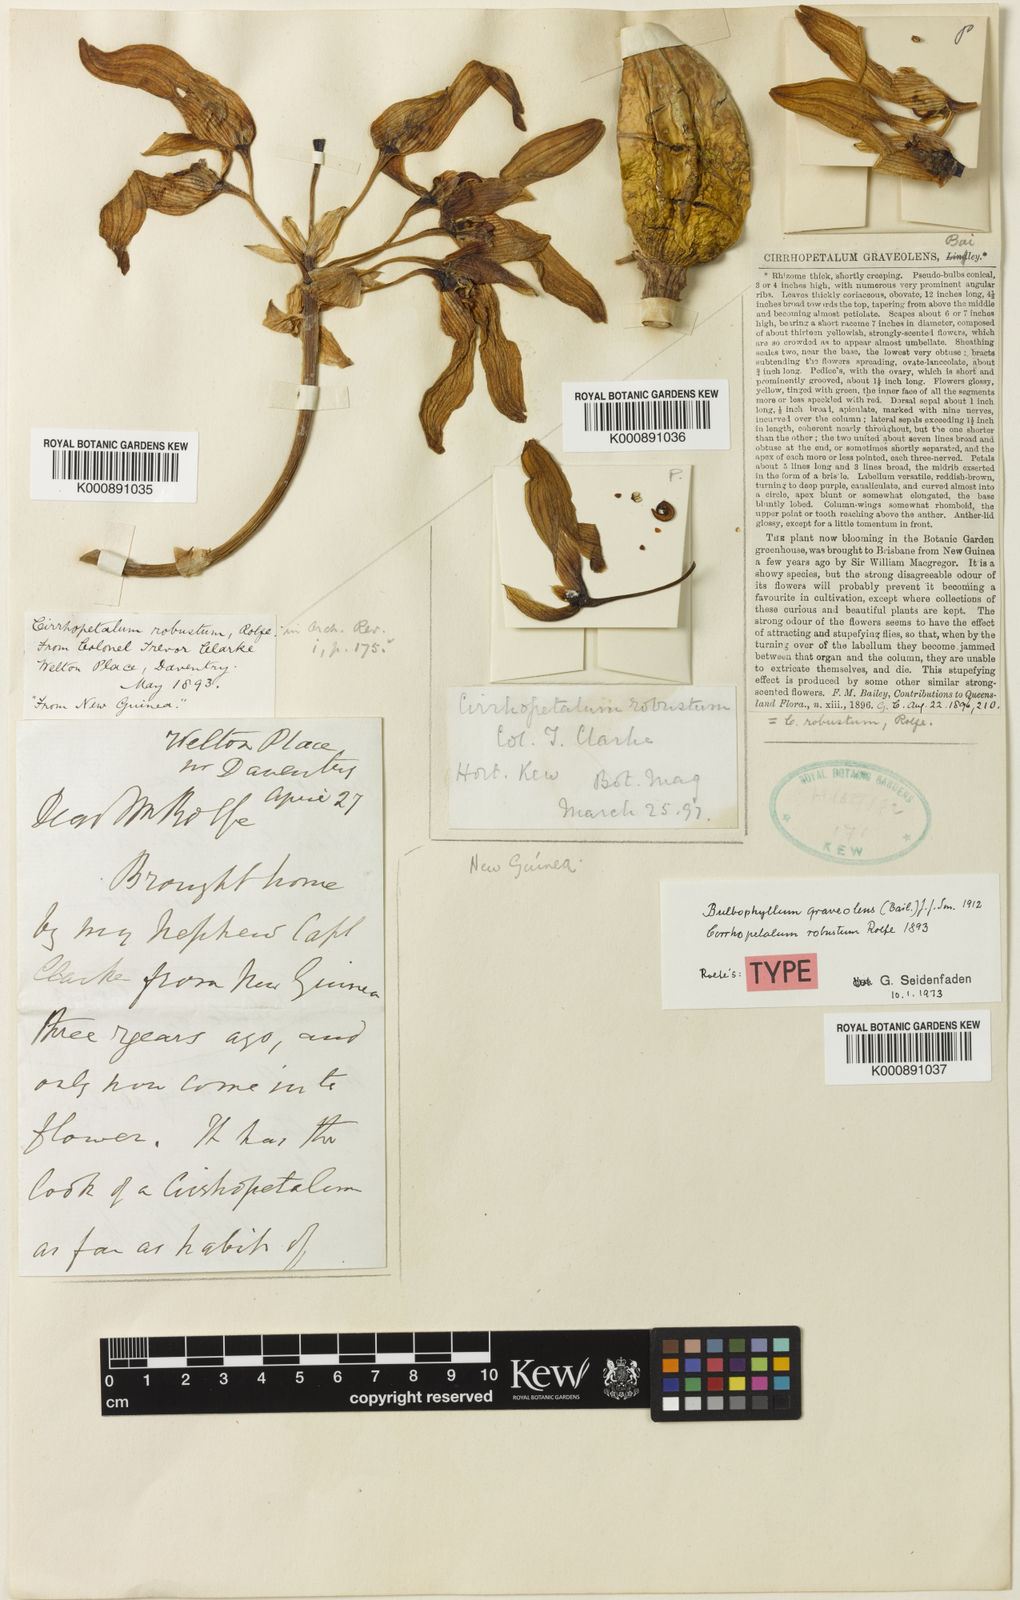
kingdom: Plantae
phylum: Tracheophyta
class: Liliopsida
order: Asparagales
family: Orchidaceae
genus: Bulbophyllum
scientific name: Bulbophyllum graveolens
